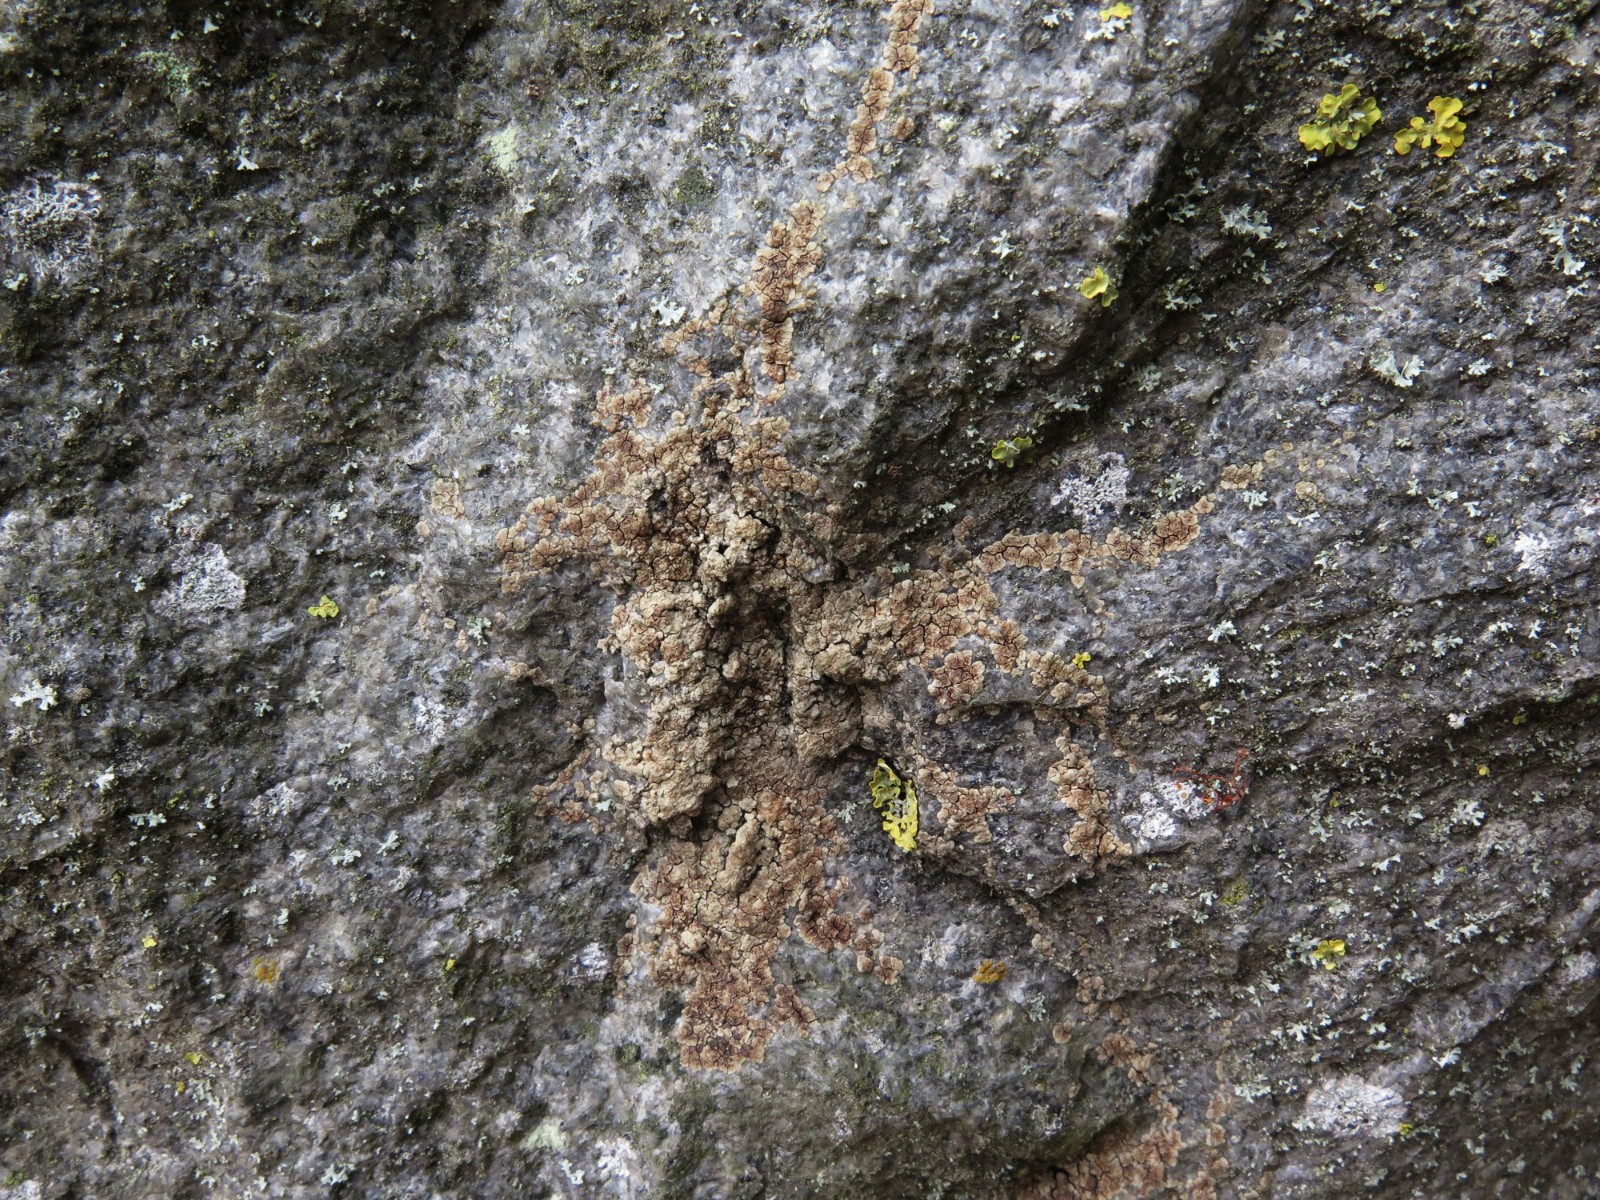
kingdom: Fungi
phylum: Ascomycota
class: Lecanoromycetes
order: Acarosporales
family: Acarosporaceae
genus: Acarospora
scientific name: Acarospora fuscata
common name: brun småsporelav
